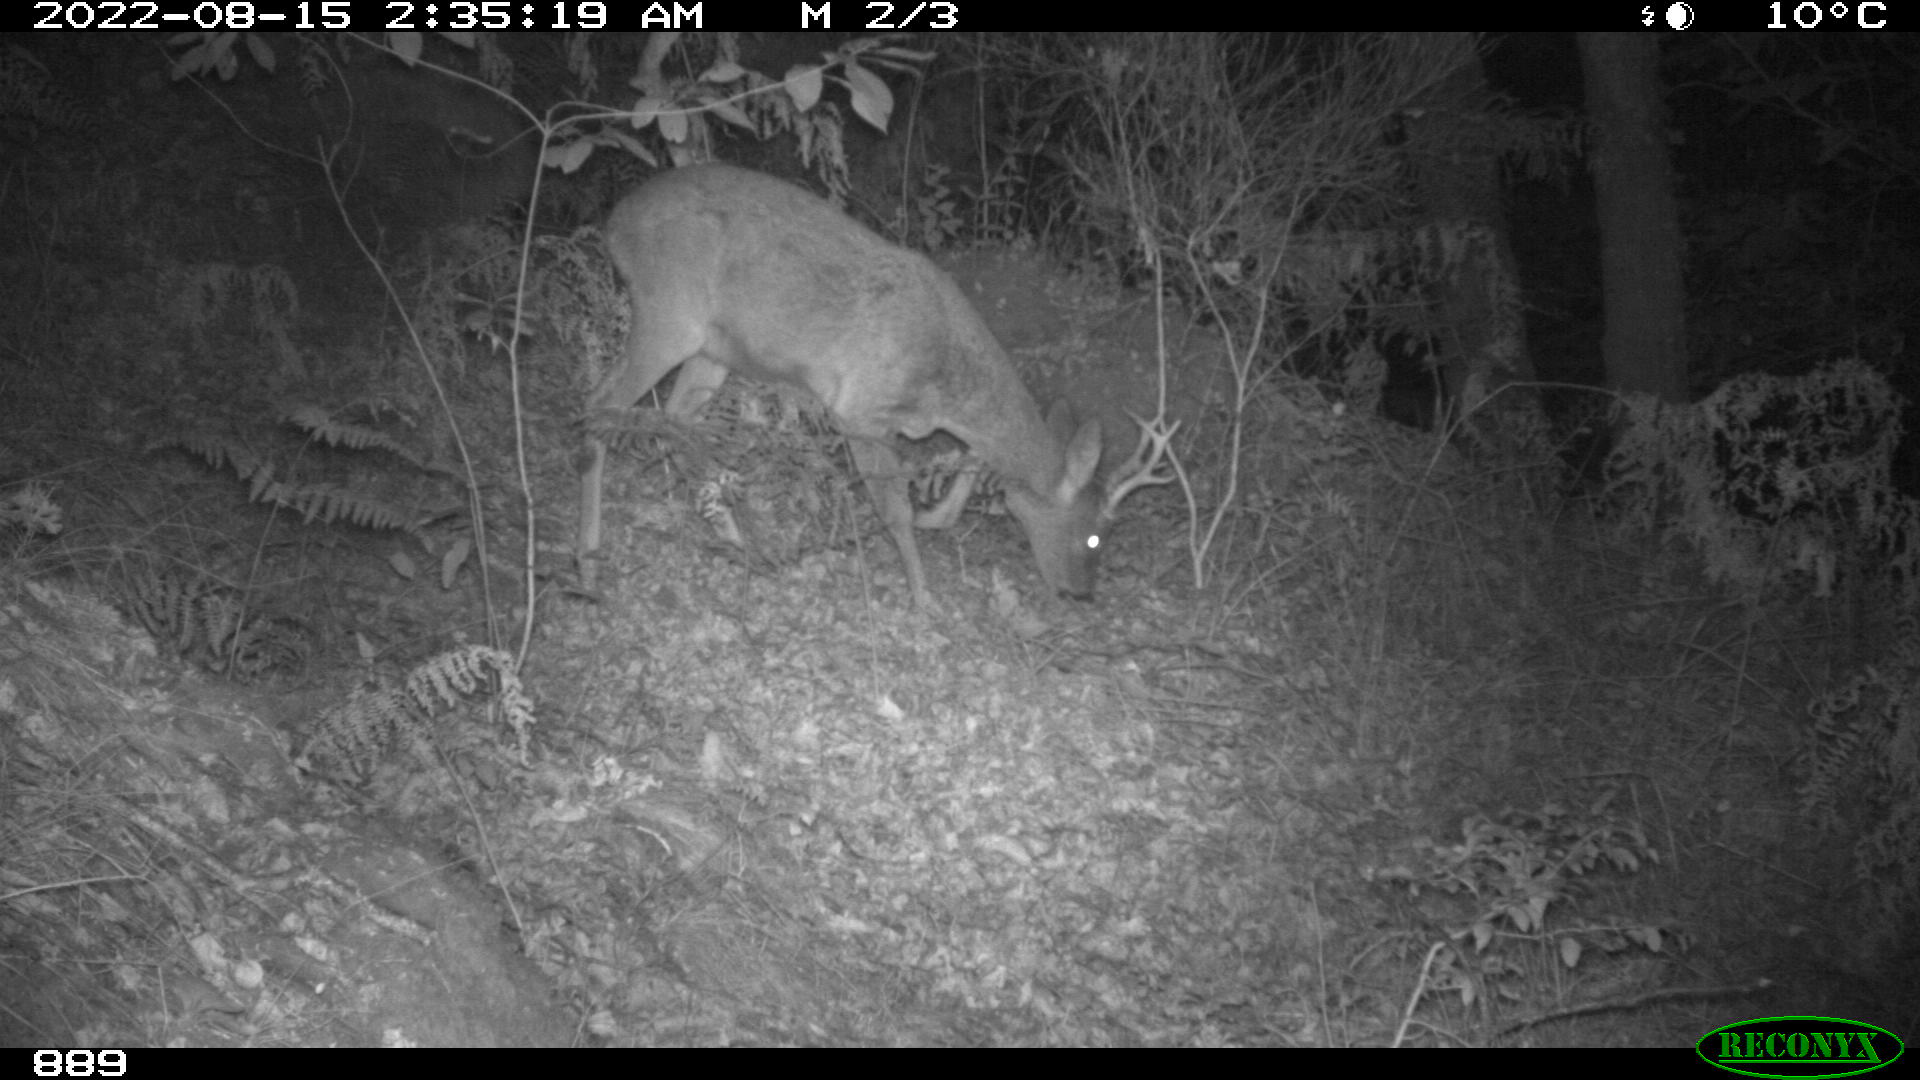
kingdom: Animalia
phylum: Chordata
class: Mammalia
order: Artiodactyla
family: Cervidae
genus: Capreolus
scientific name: Capreolus capreolus
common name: Western roe deer
